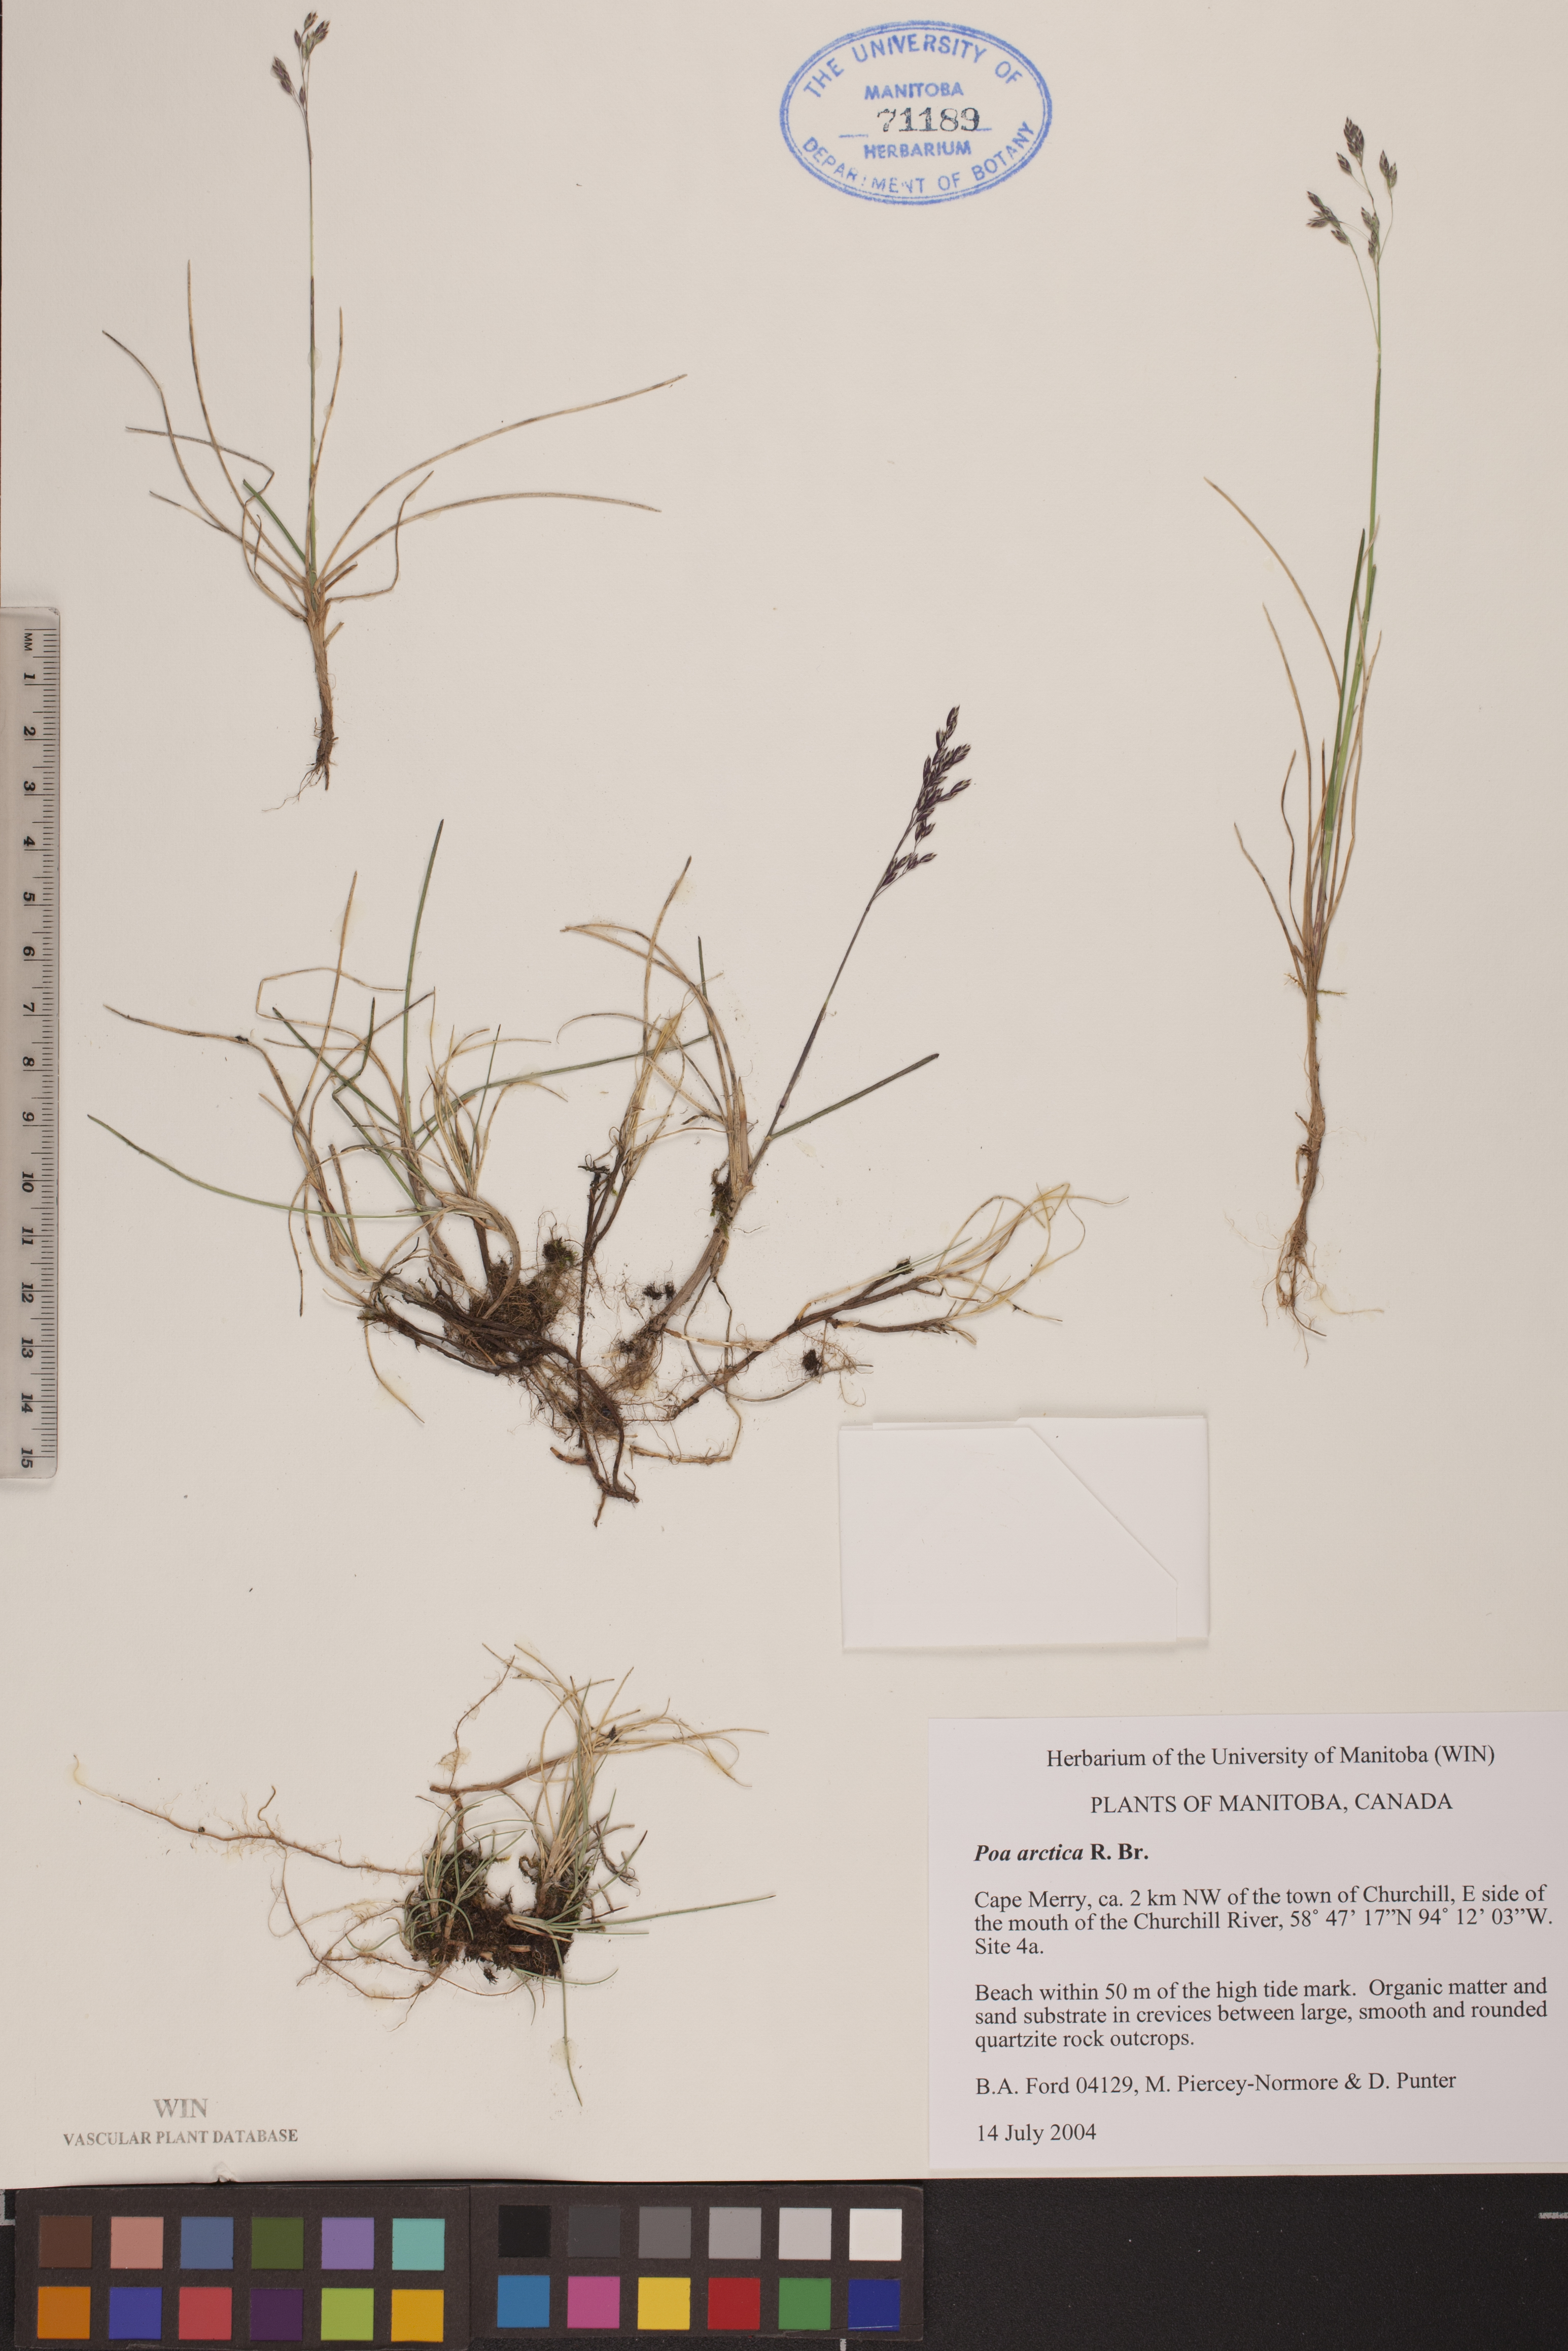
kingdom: Plantae
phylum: Tracheophyta
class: Liliopsida
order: Poales
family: Poaceae
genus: Poa
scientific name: Poa arctica
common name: Arctic bluegrass
